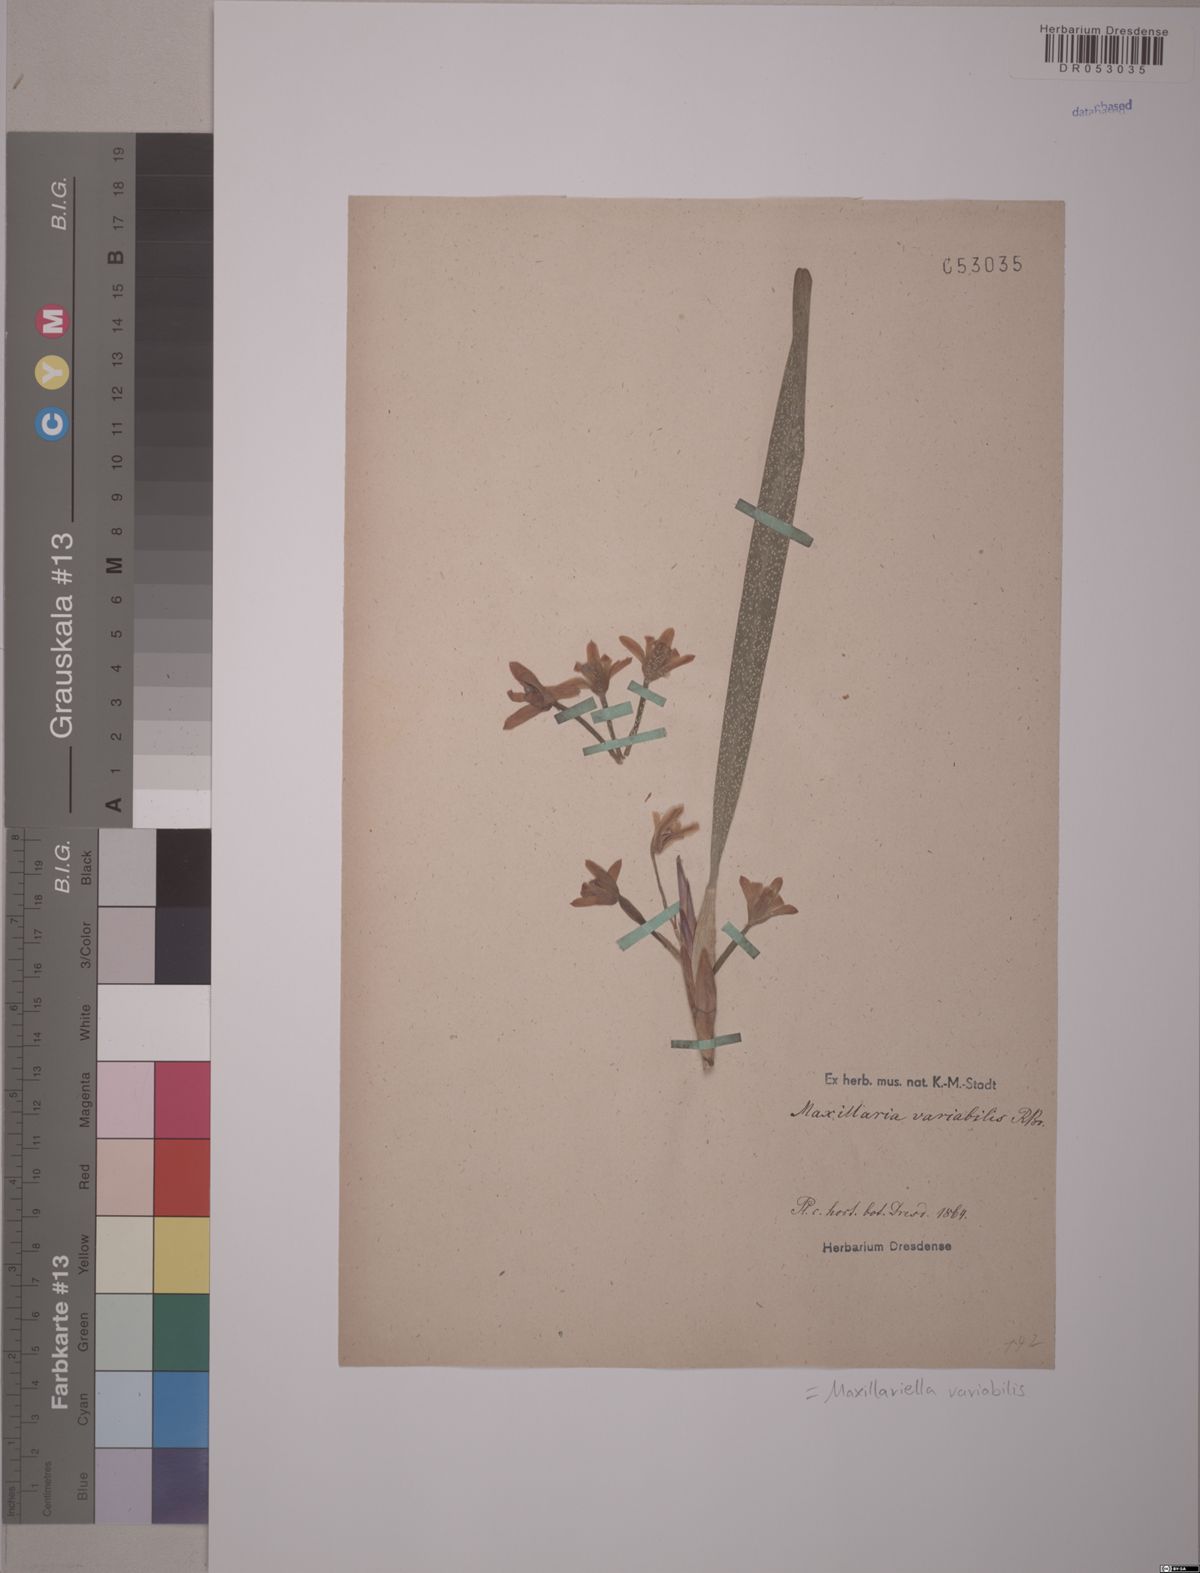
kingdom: Plantae
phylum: Tracheophyta
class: Liliopsida
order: Asparagales
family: Orchidaceae
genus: Maxillaria
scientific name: Maxillaria variabilis
